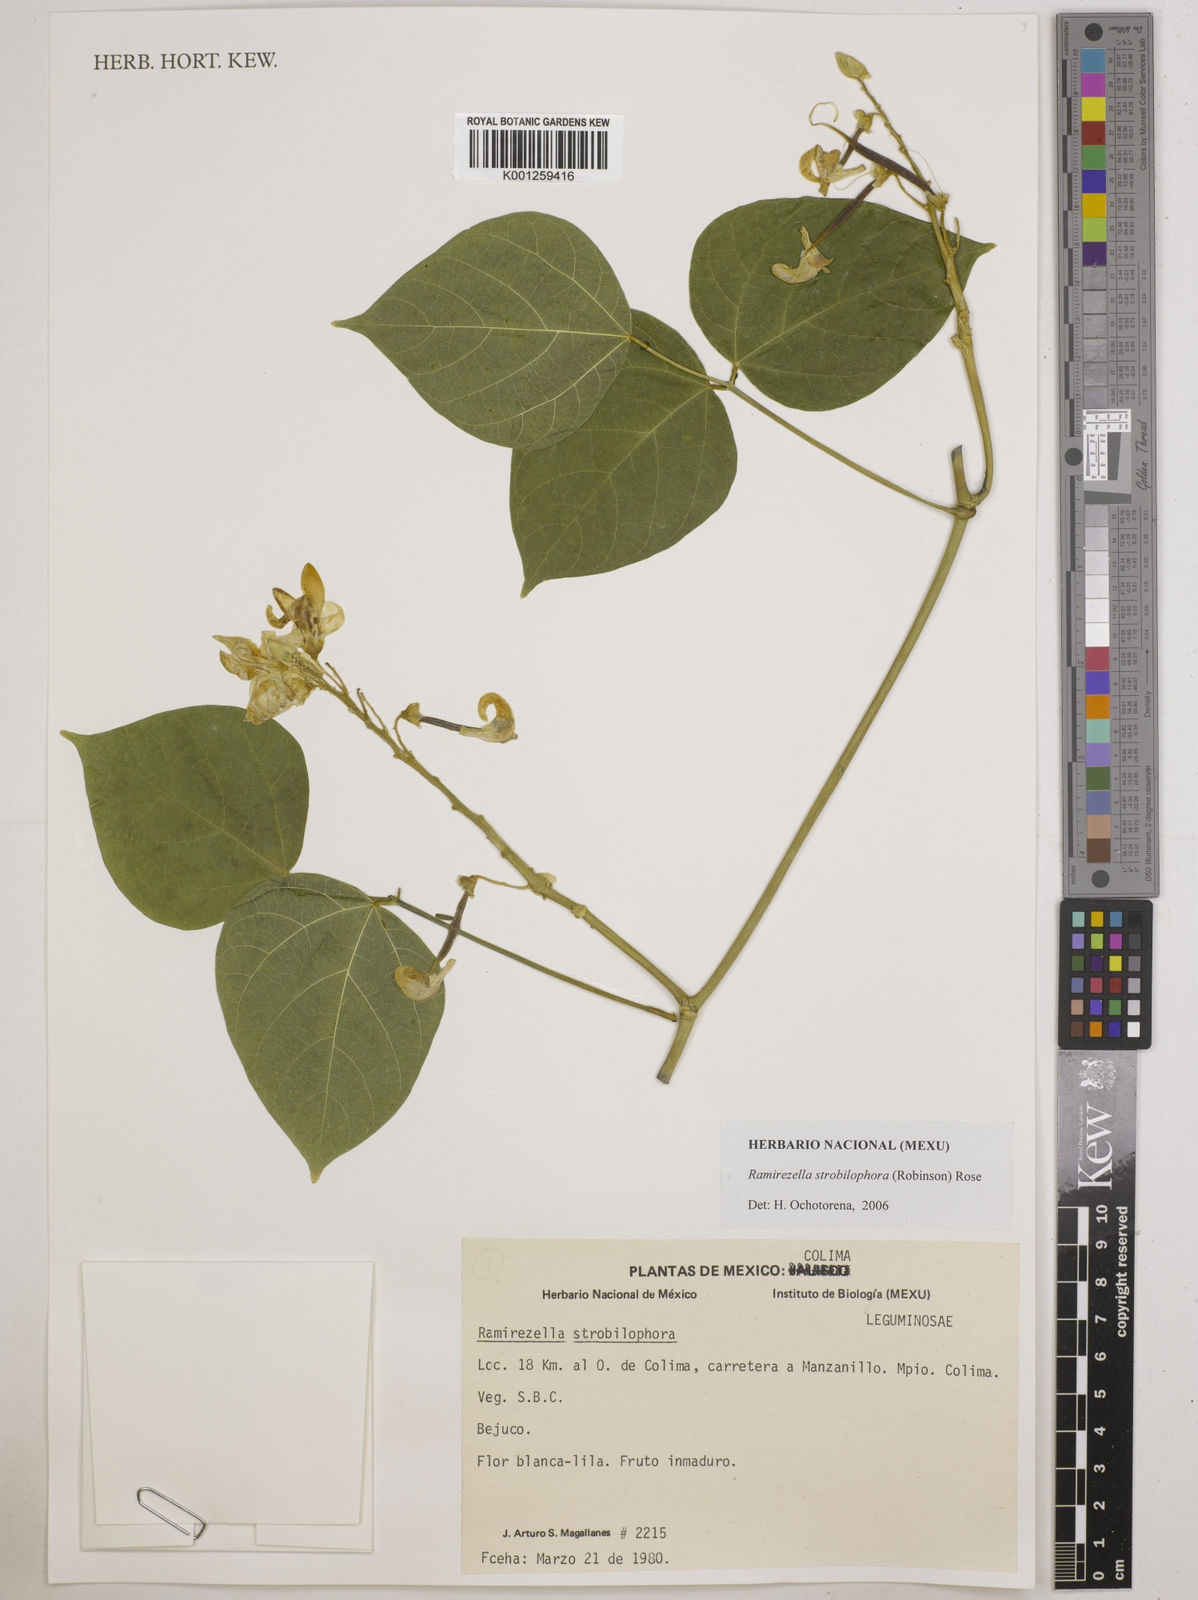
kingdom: Plantae
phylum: Tracheophyta
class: Magnoliopsida
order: Fabales
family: Fabaceae
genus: Ramirezella
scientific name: Ramirezella strobilophora
